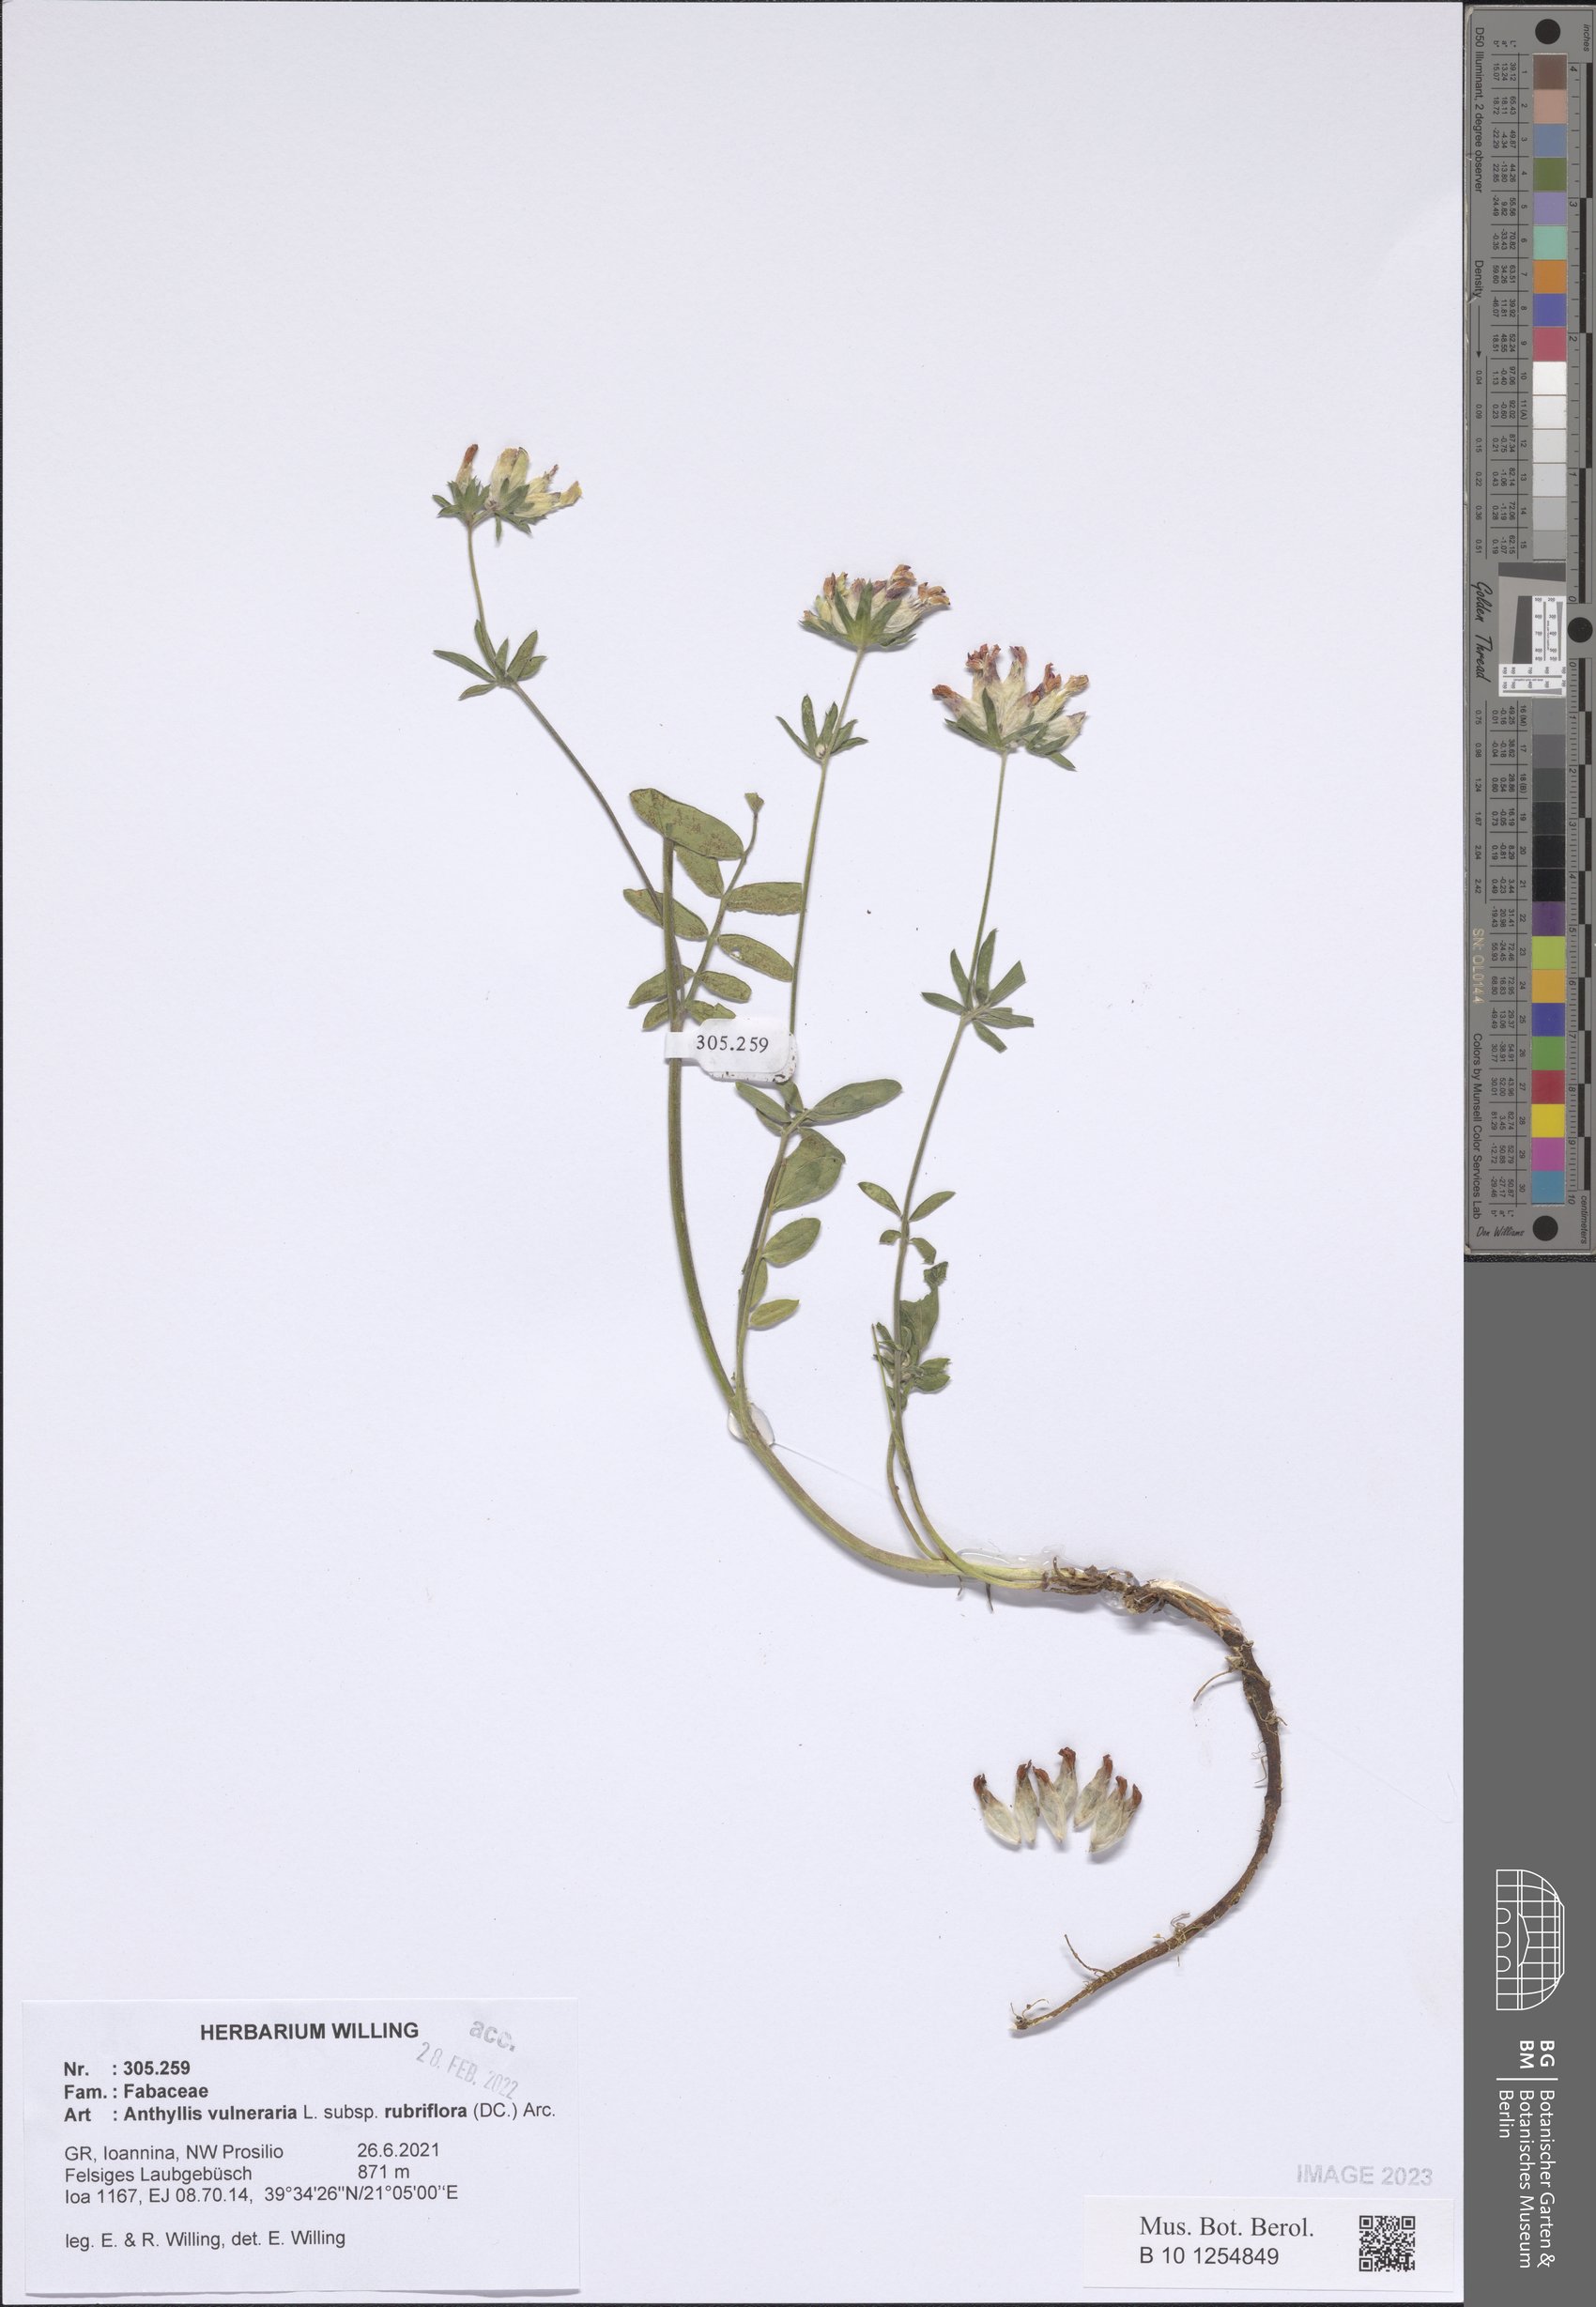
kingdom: Plantae
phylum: Tracheophyta
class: Magnoliopsida
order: Fabales
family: Fabaceae
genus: Anthyllis
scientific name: Anthyllis vulneraria
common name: Kidney vetch
